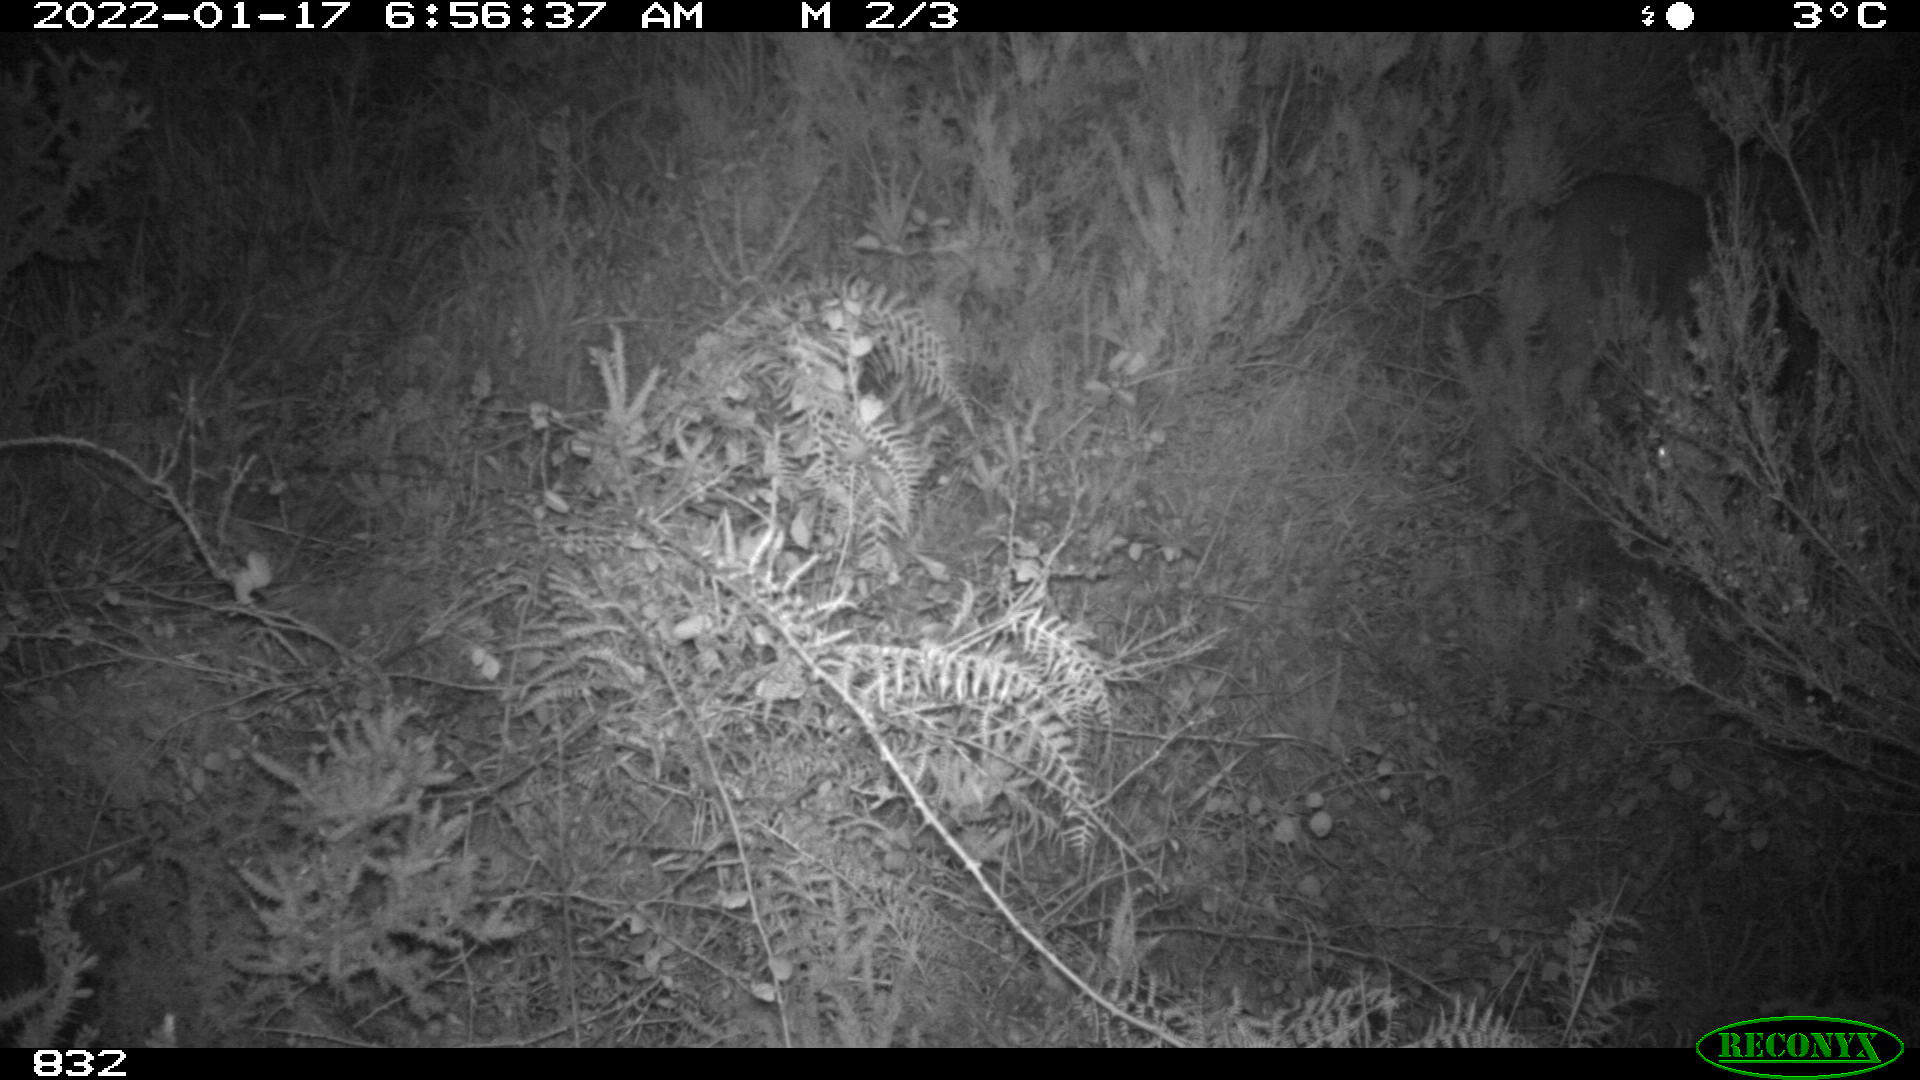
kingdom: Animalia
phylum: Chordata
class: Mammalia
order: Artiodactyla
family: Cervidae
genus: Capreolus
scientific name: Capreolus capreolus
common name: Western roe deer
